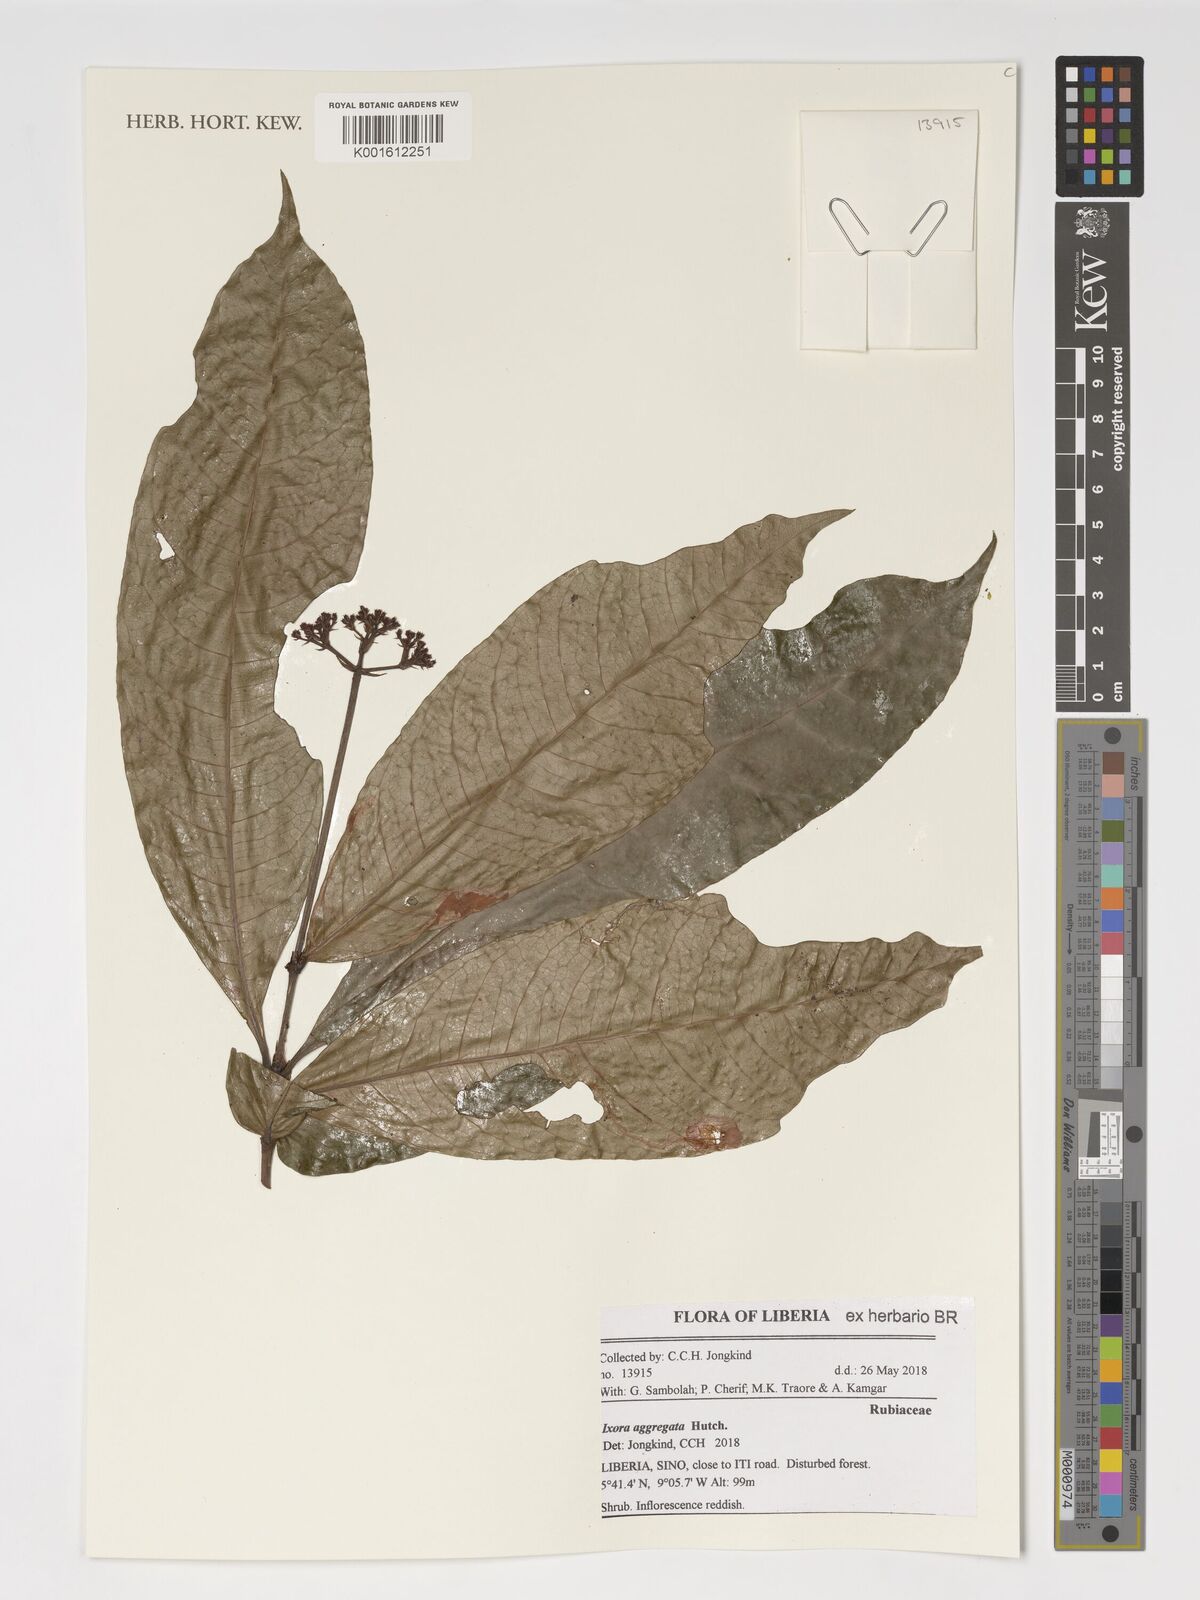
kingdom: Plantae
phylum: Tracheophyta
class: Magnoliopsida
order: Gentianales
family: Rubiaceae
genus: Ixora
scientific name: Ixora aggregata
